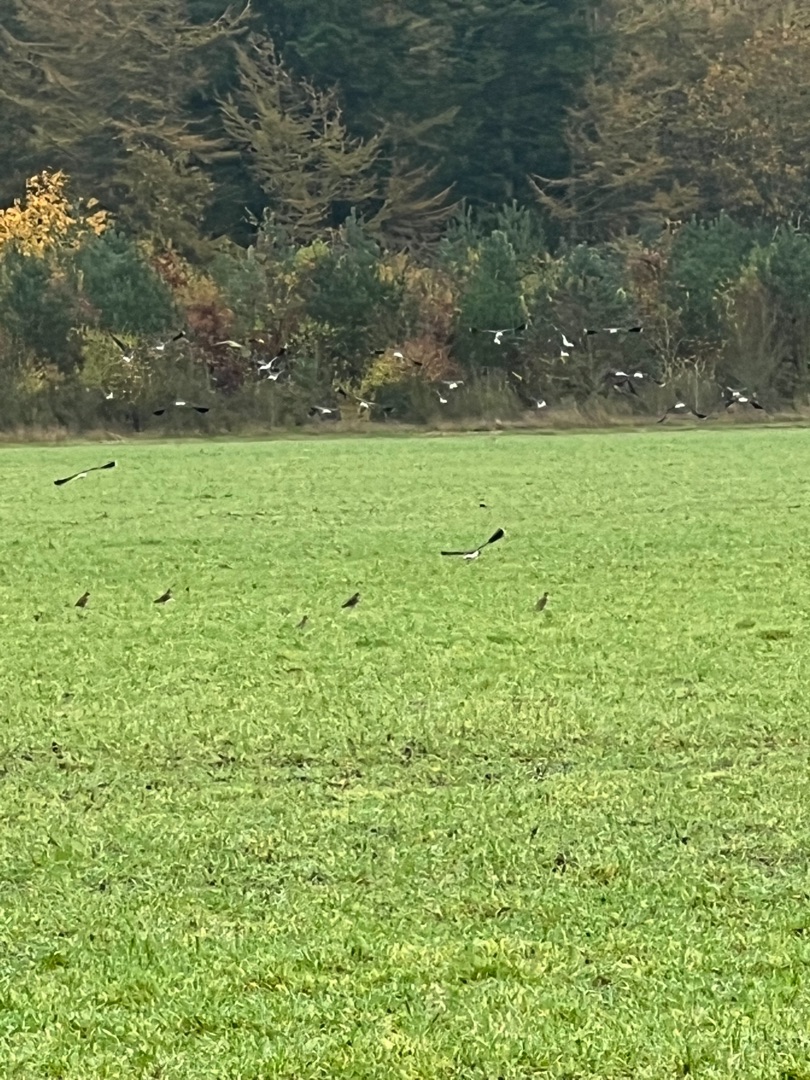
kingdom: Animalia
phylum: Chordata
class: Aves
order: Charadriiformes
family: Charadriidae
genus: Vanellus
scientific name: Vanellus vanellus
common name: Vibe
